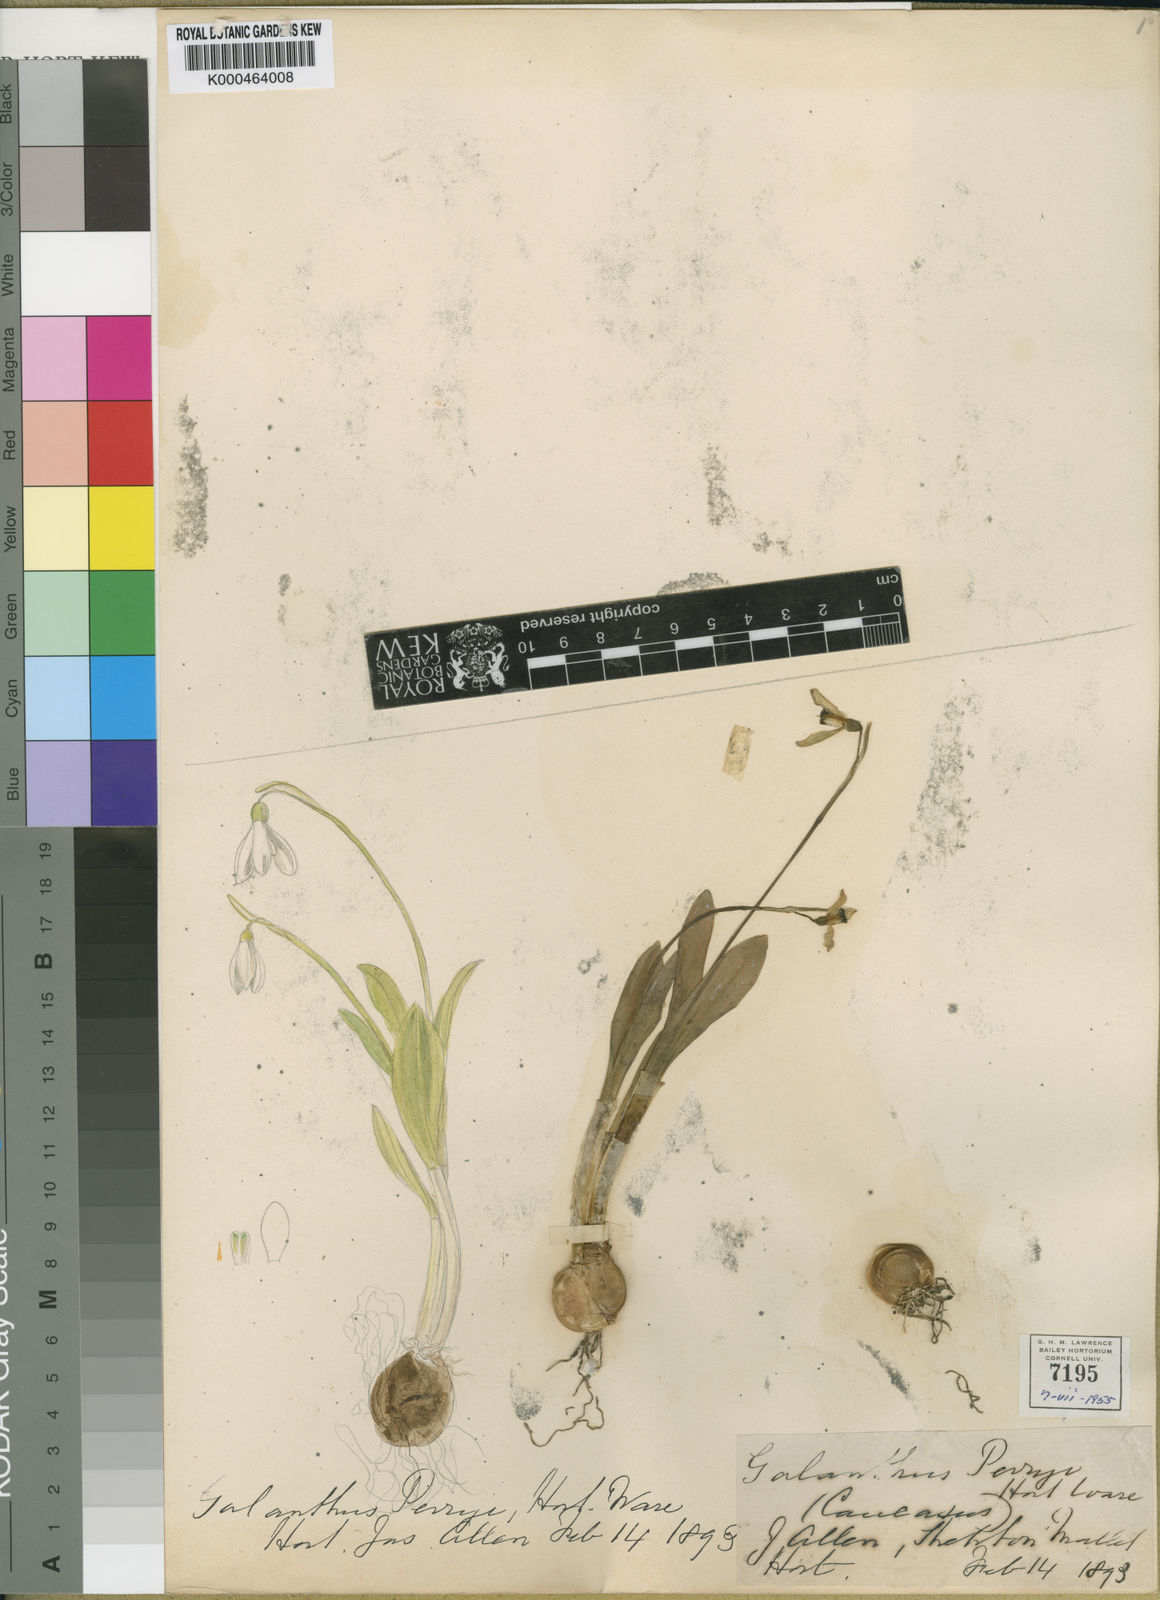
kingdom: Plantae
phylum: Tracheophyta
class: Liliopsida
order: Asparagales
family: Amaryllidaceae
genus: Galanthus
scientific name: Galanthus allenii
